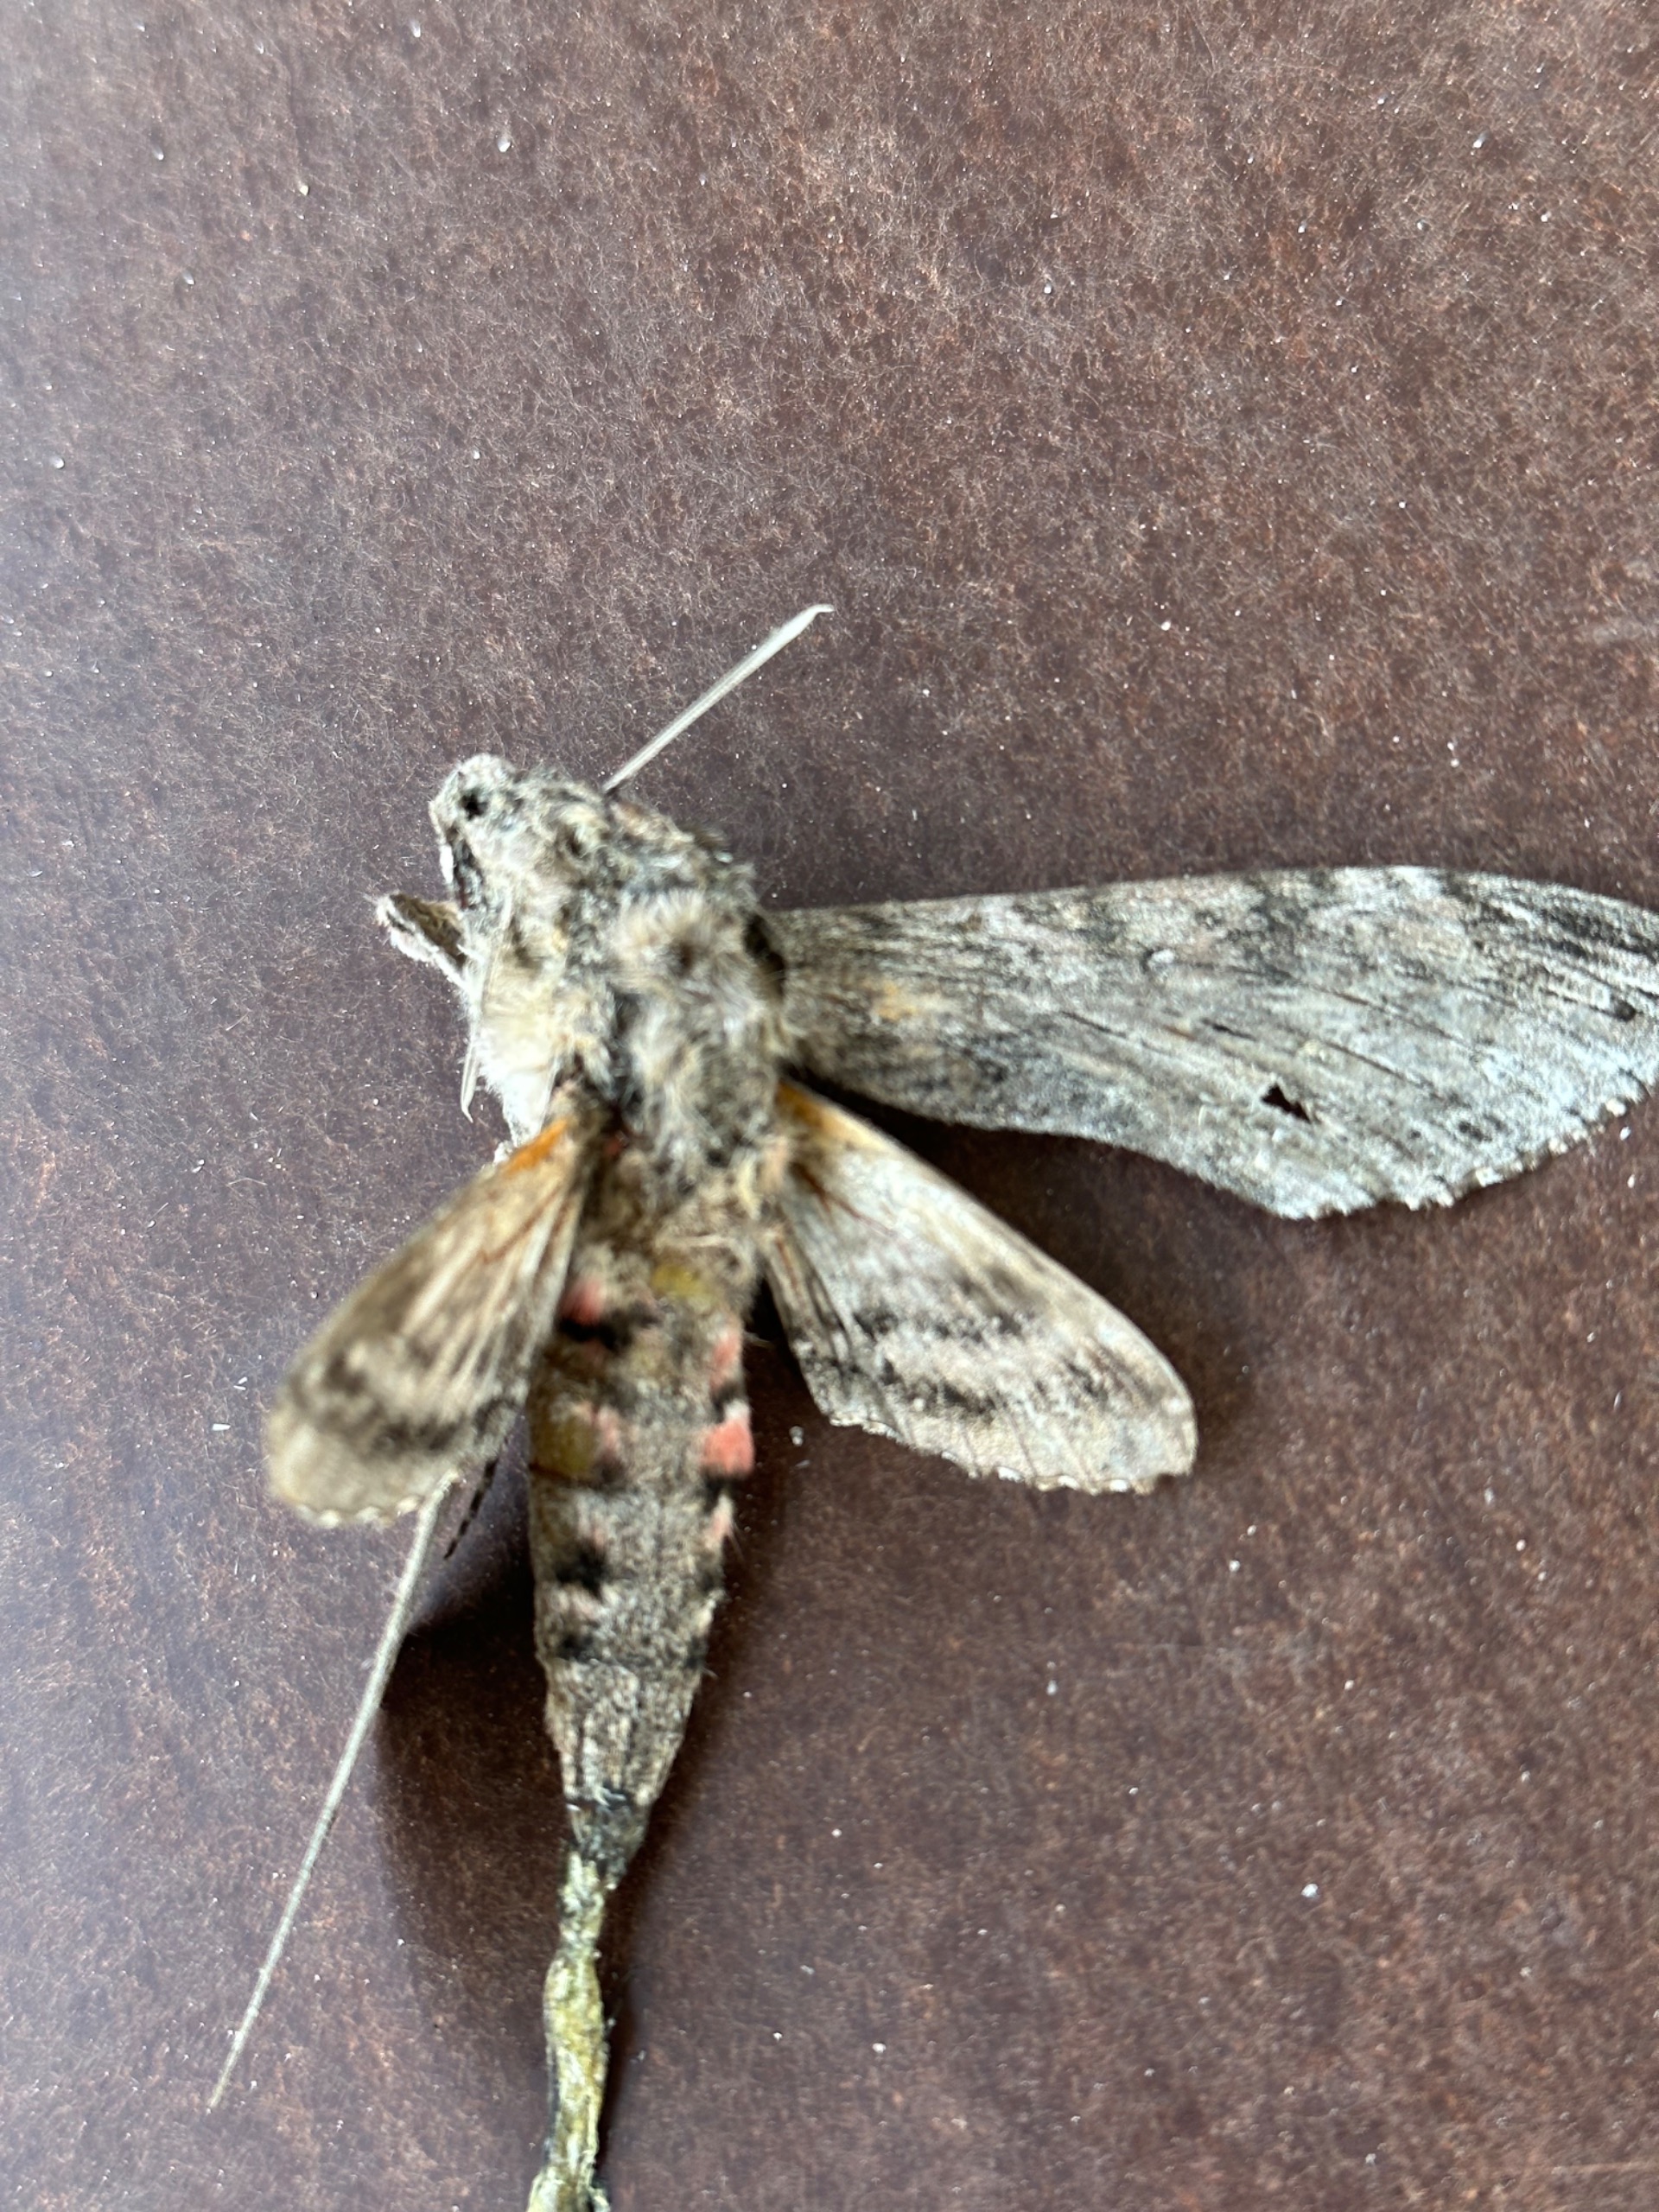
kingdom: Animalia
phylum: Arthropoda
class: Insecta
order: Lepidoptera
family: Sphingidae
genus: Agrius
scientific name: Agrius convolvuli
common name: Snerlesværmer
